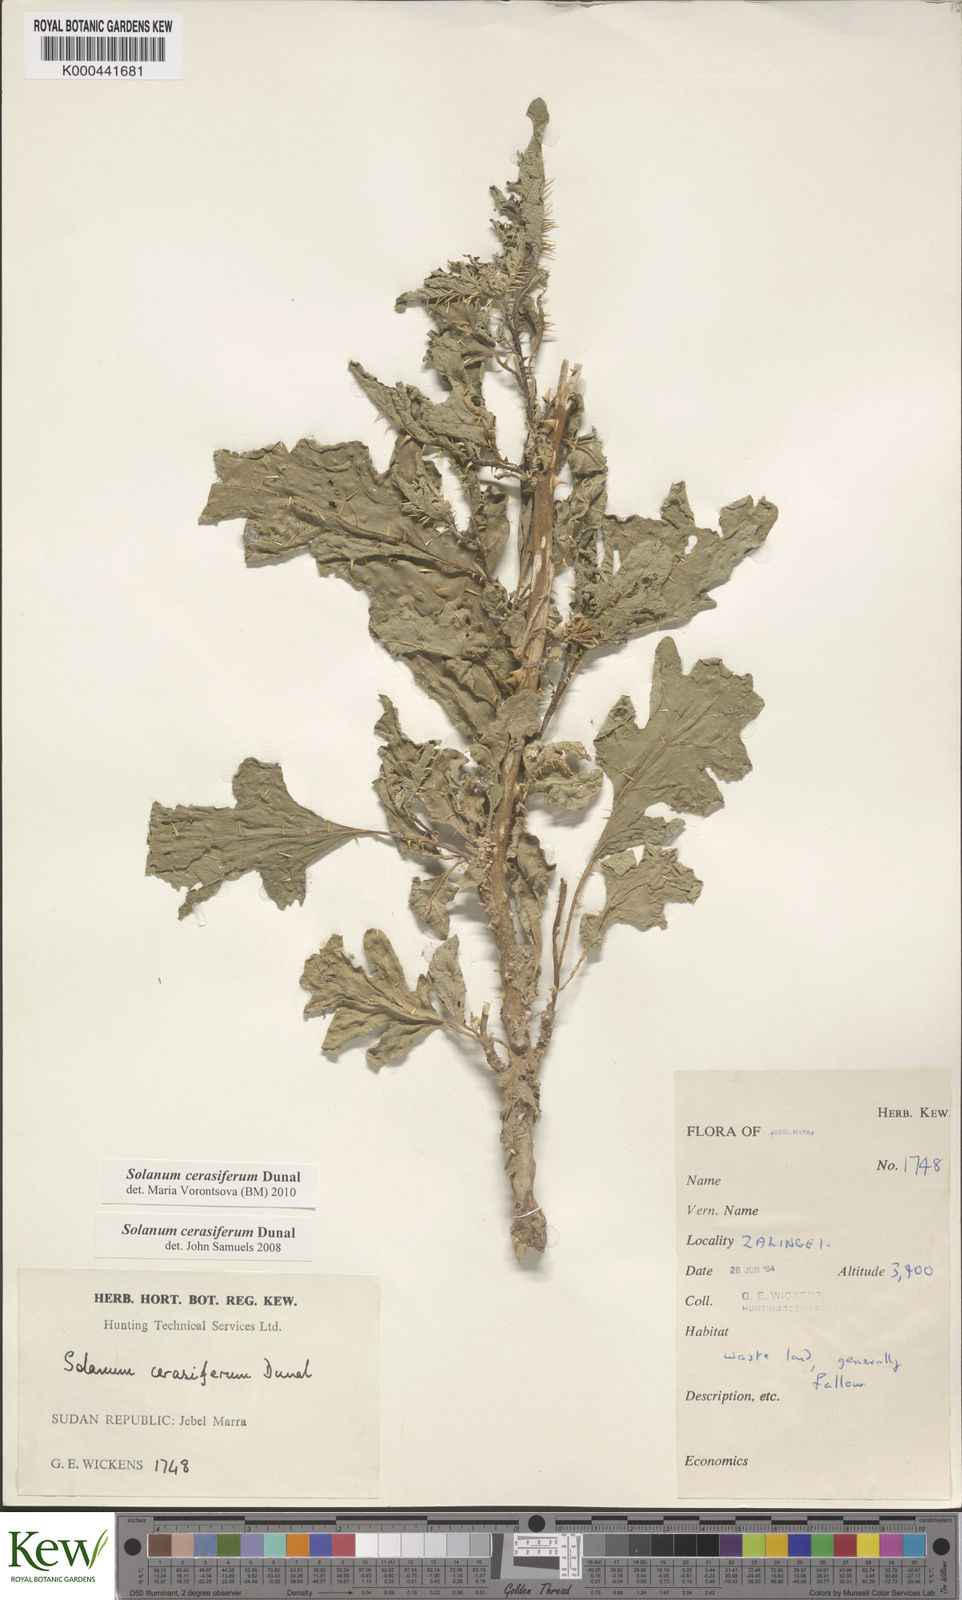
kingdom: Plantae
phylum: Tracheophyta
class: Magnoliopsida
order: Solanales
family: Solanaceae
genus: Solanum
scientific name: Solanum cerasiferum
